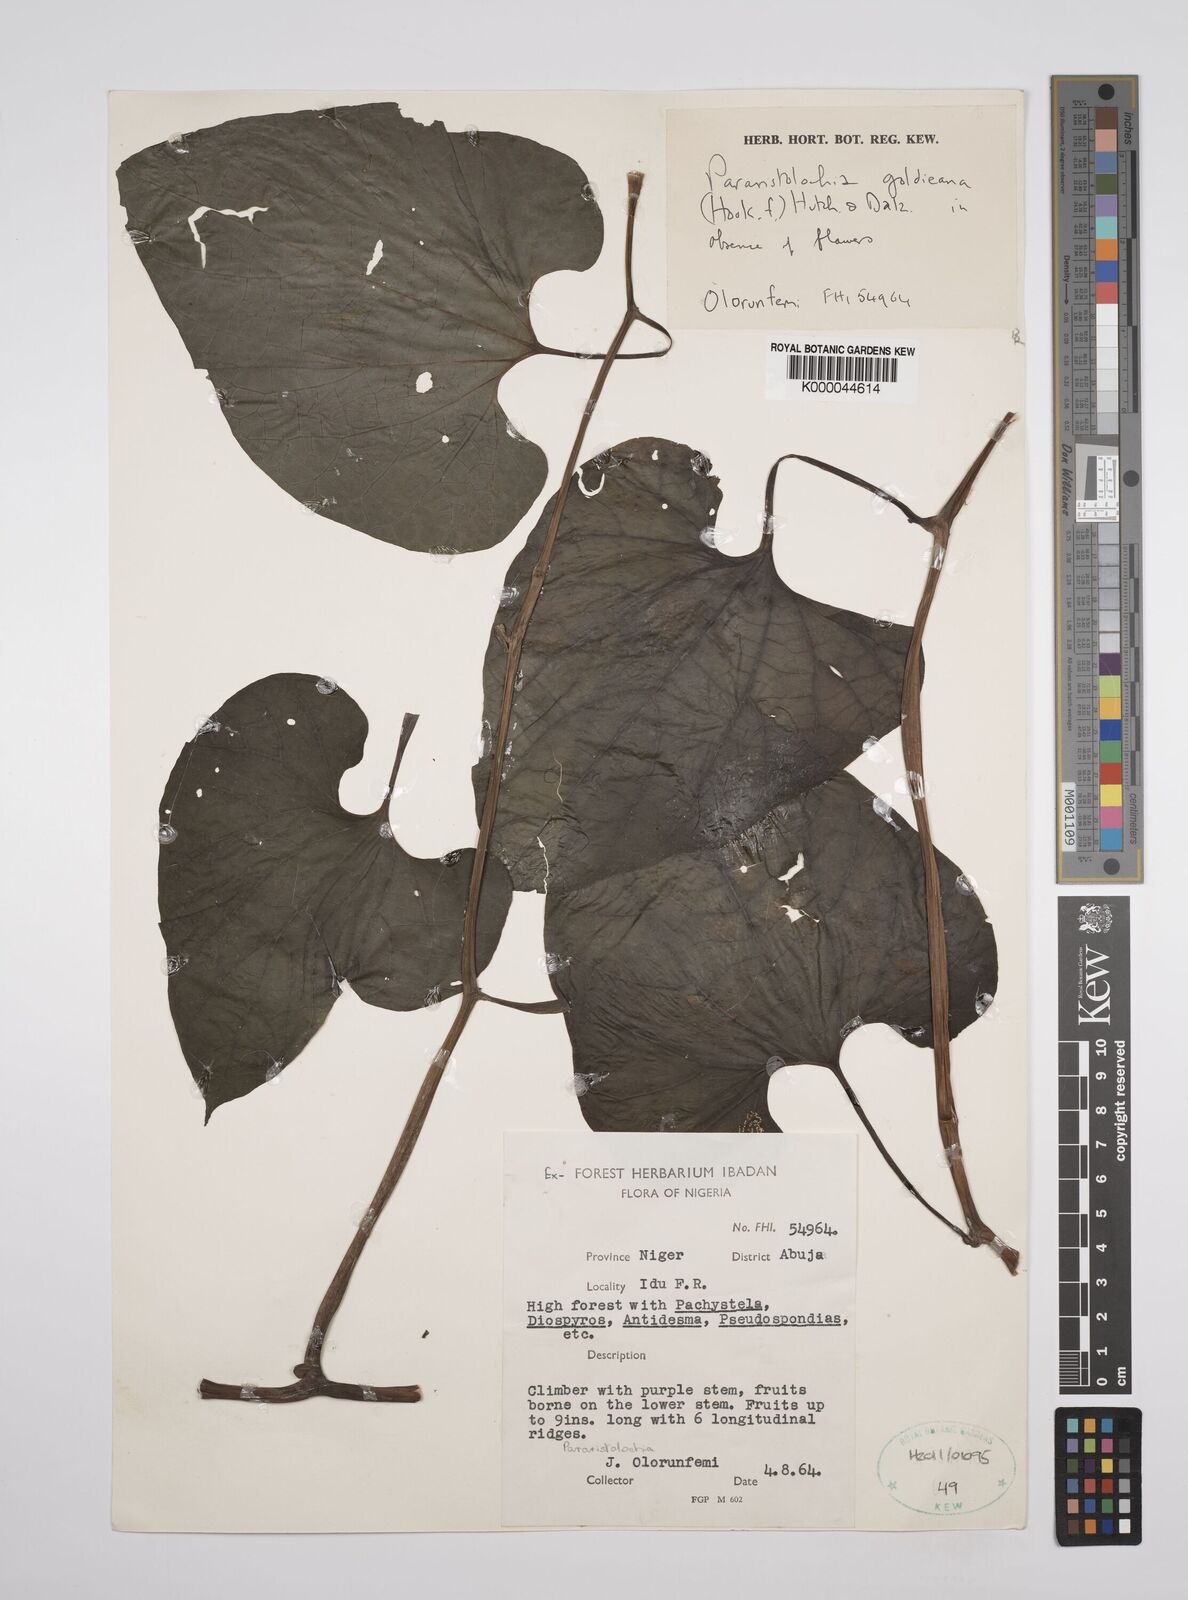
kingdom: Plantae
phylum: Tracheophyta
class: Magnoliopsida
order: Piperales
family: Aristolochiaceae
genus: Aristolochia
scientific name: Aristolochia goldieana
